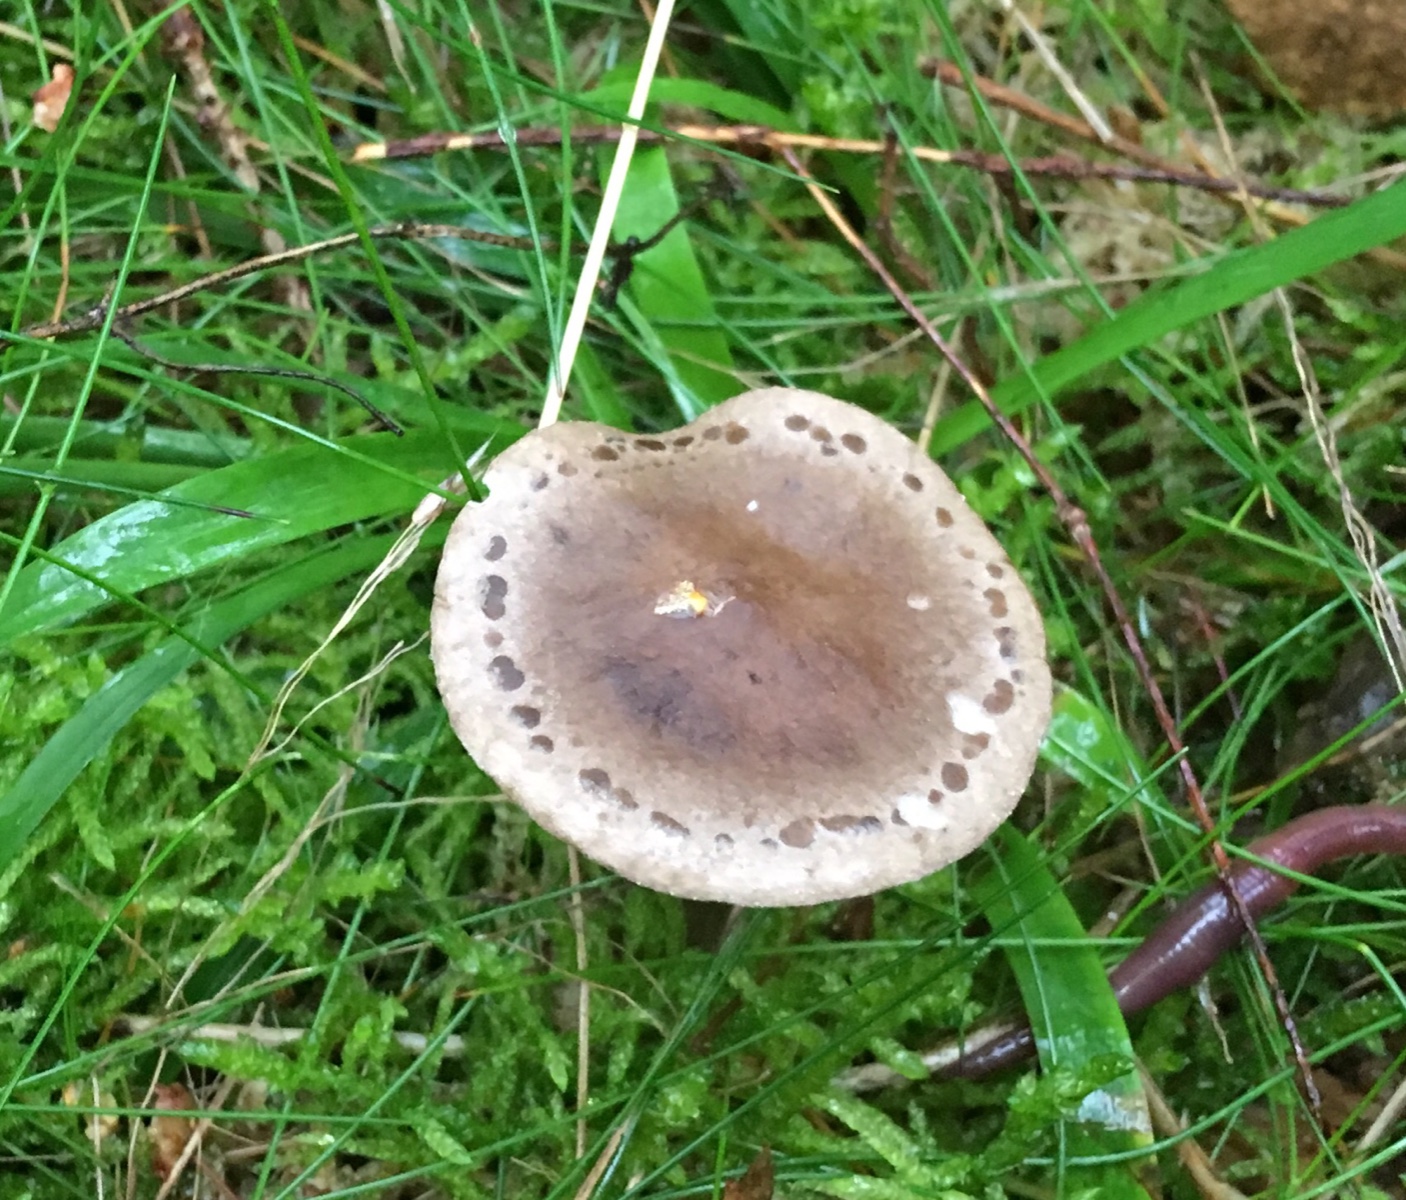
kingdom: Fungi
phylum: Basidiomycota
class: Agaricomycetes
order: Agaricales
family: Tricholomataceae
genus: Lepista
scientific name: Lepista panaeolus
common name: marmoreret hekseringshat
